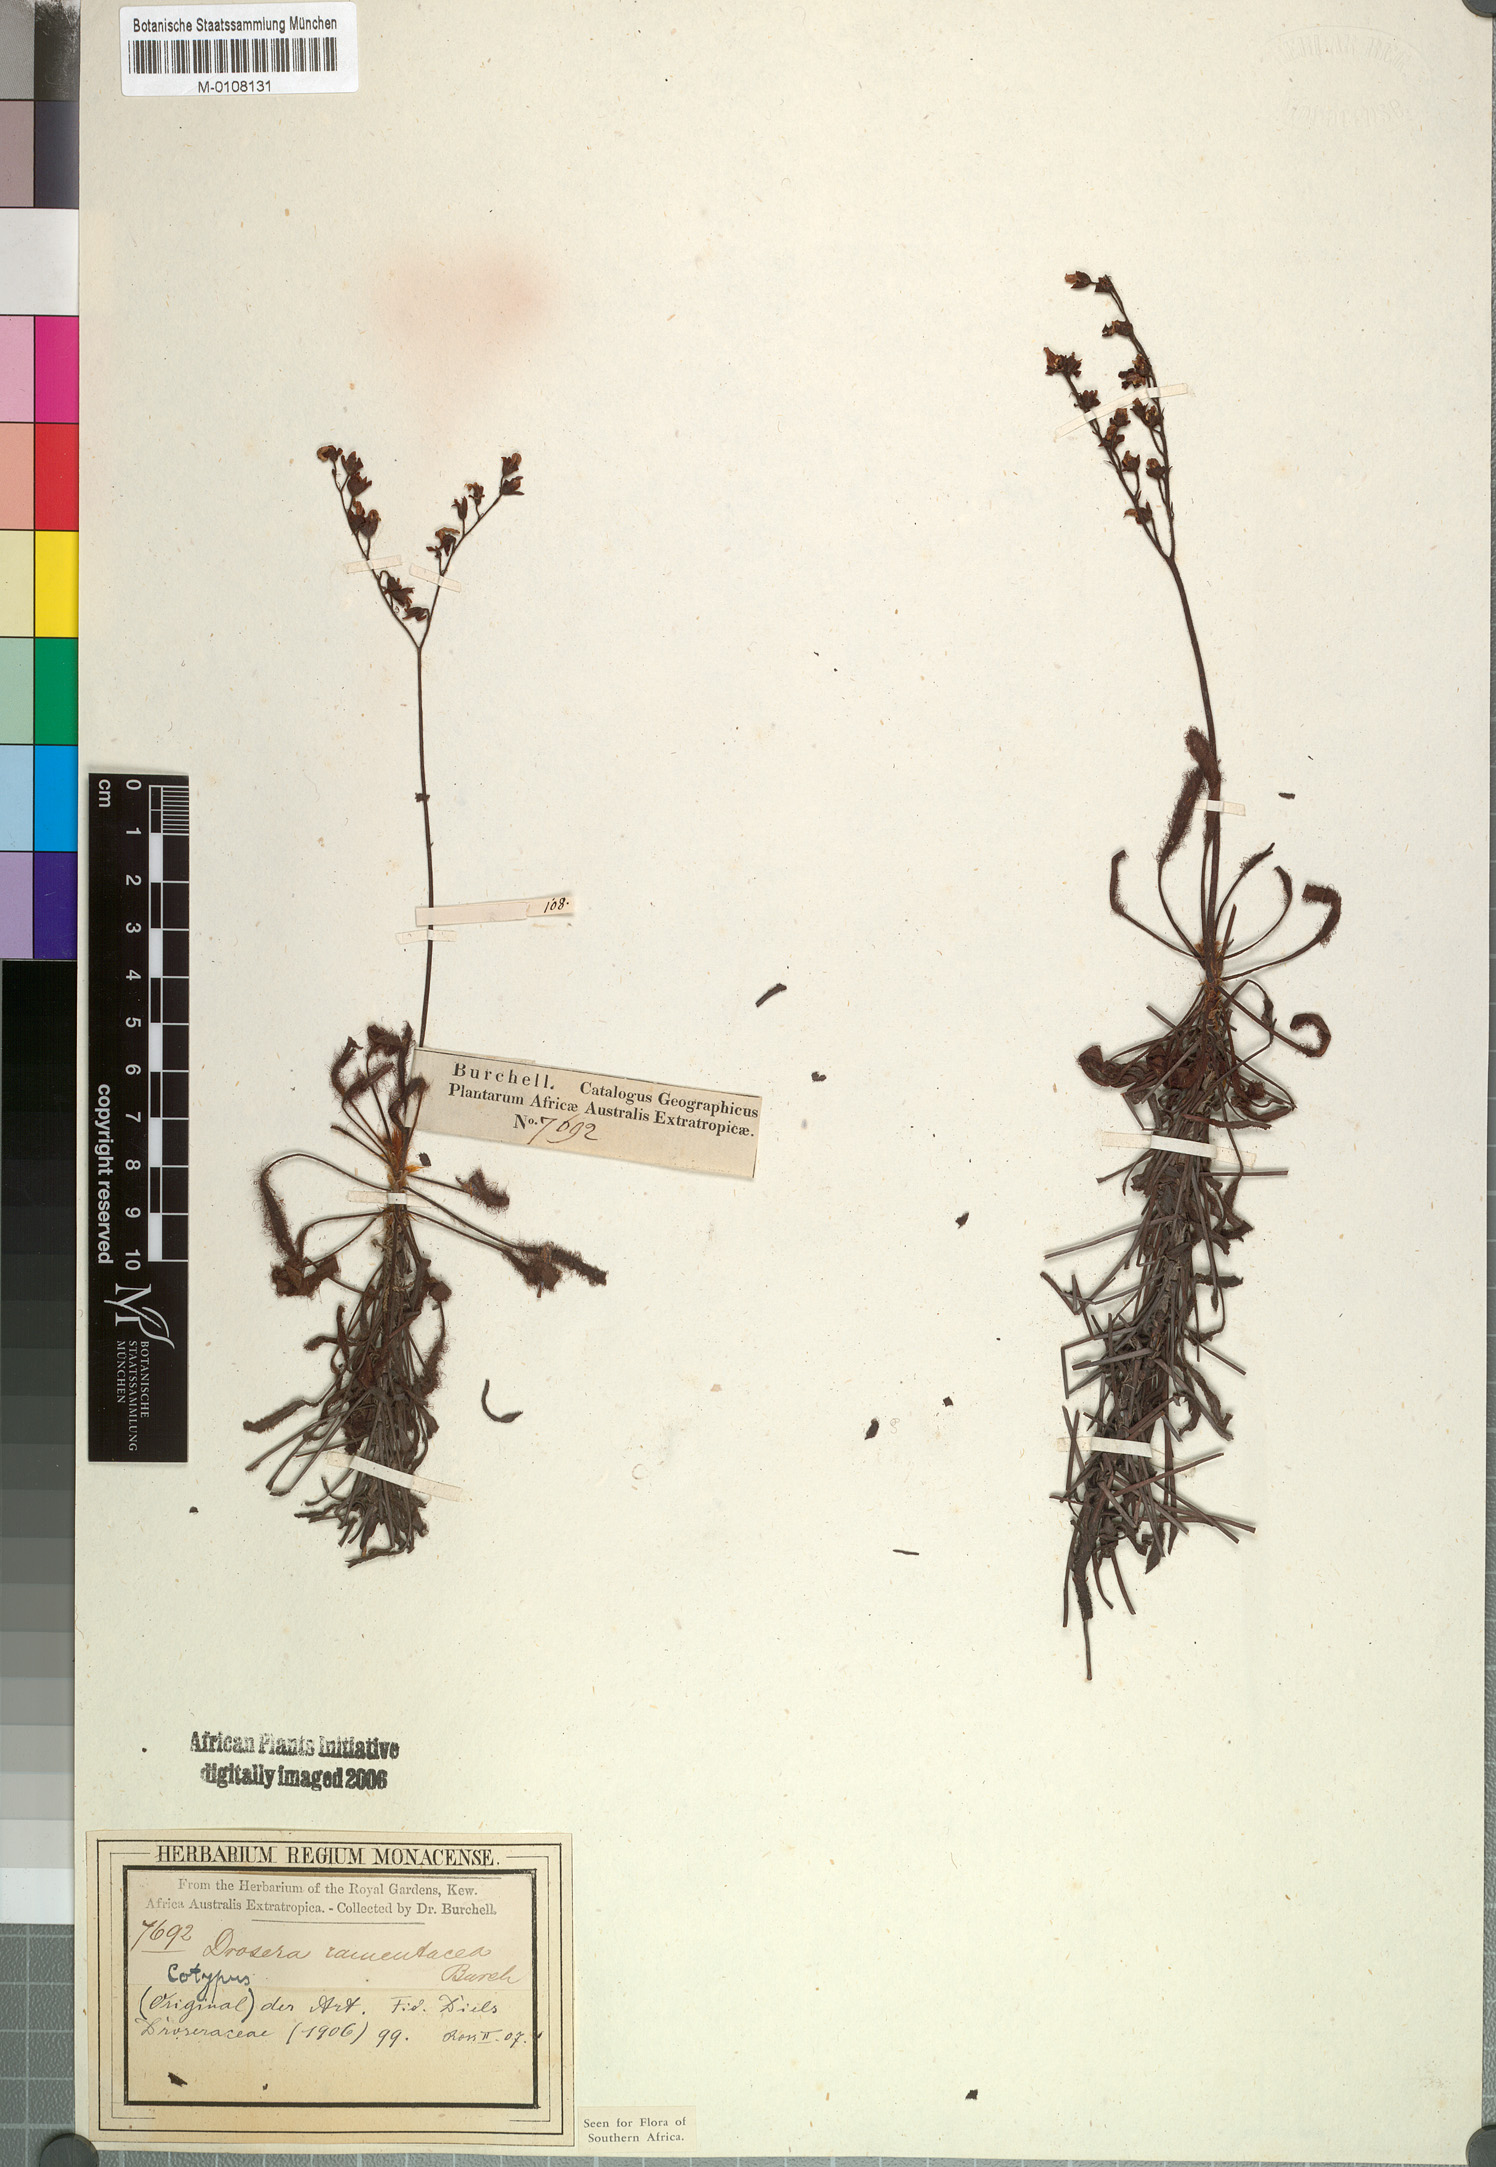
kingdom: Plantae
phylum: Tracheophyta
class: Magnoliopsida
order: Caryophyllales
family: Droseraceae
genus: Drosera
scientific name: Drosera ramentacea
